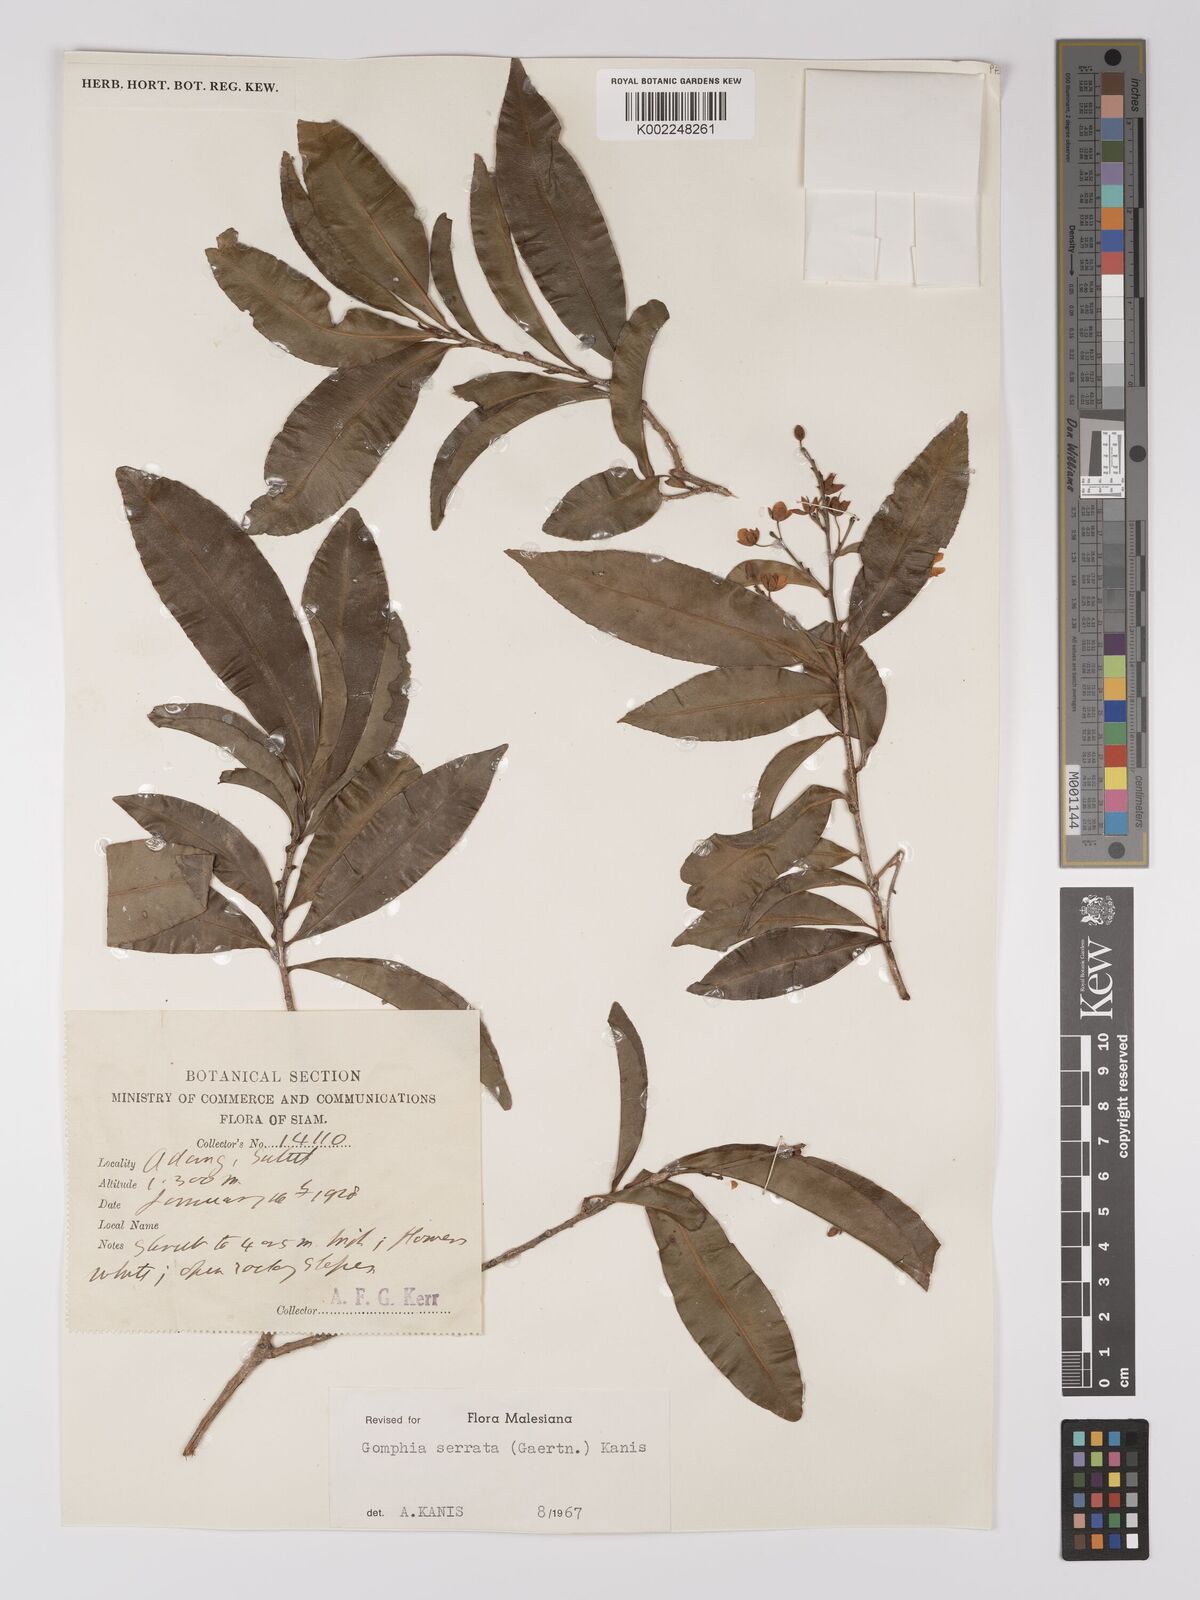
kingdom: Plantae
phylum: Tracheophyta
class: Magnoliopsida
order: Malpighiales
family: Ochnaceae
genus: Gomphia
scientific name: Gomphia serrata
